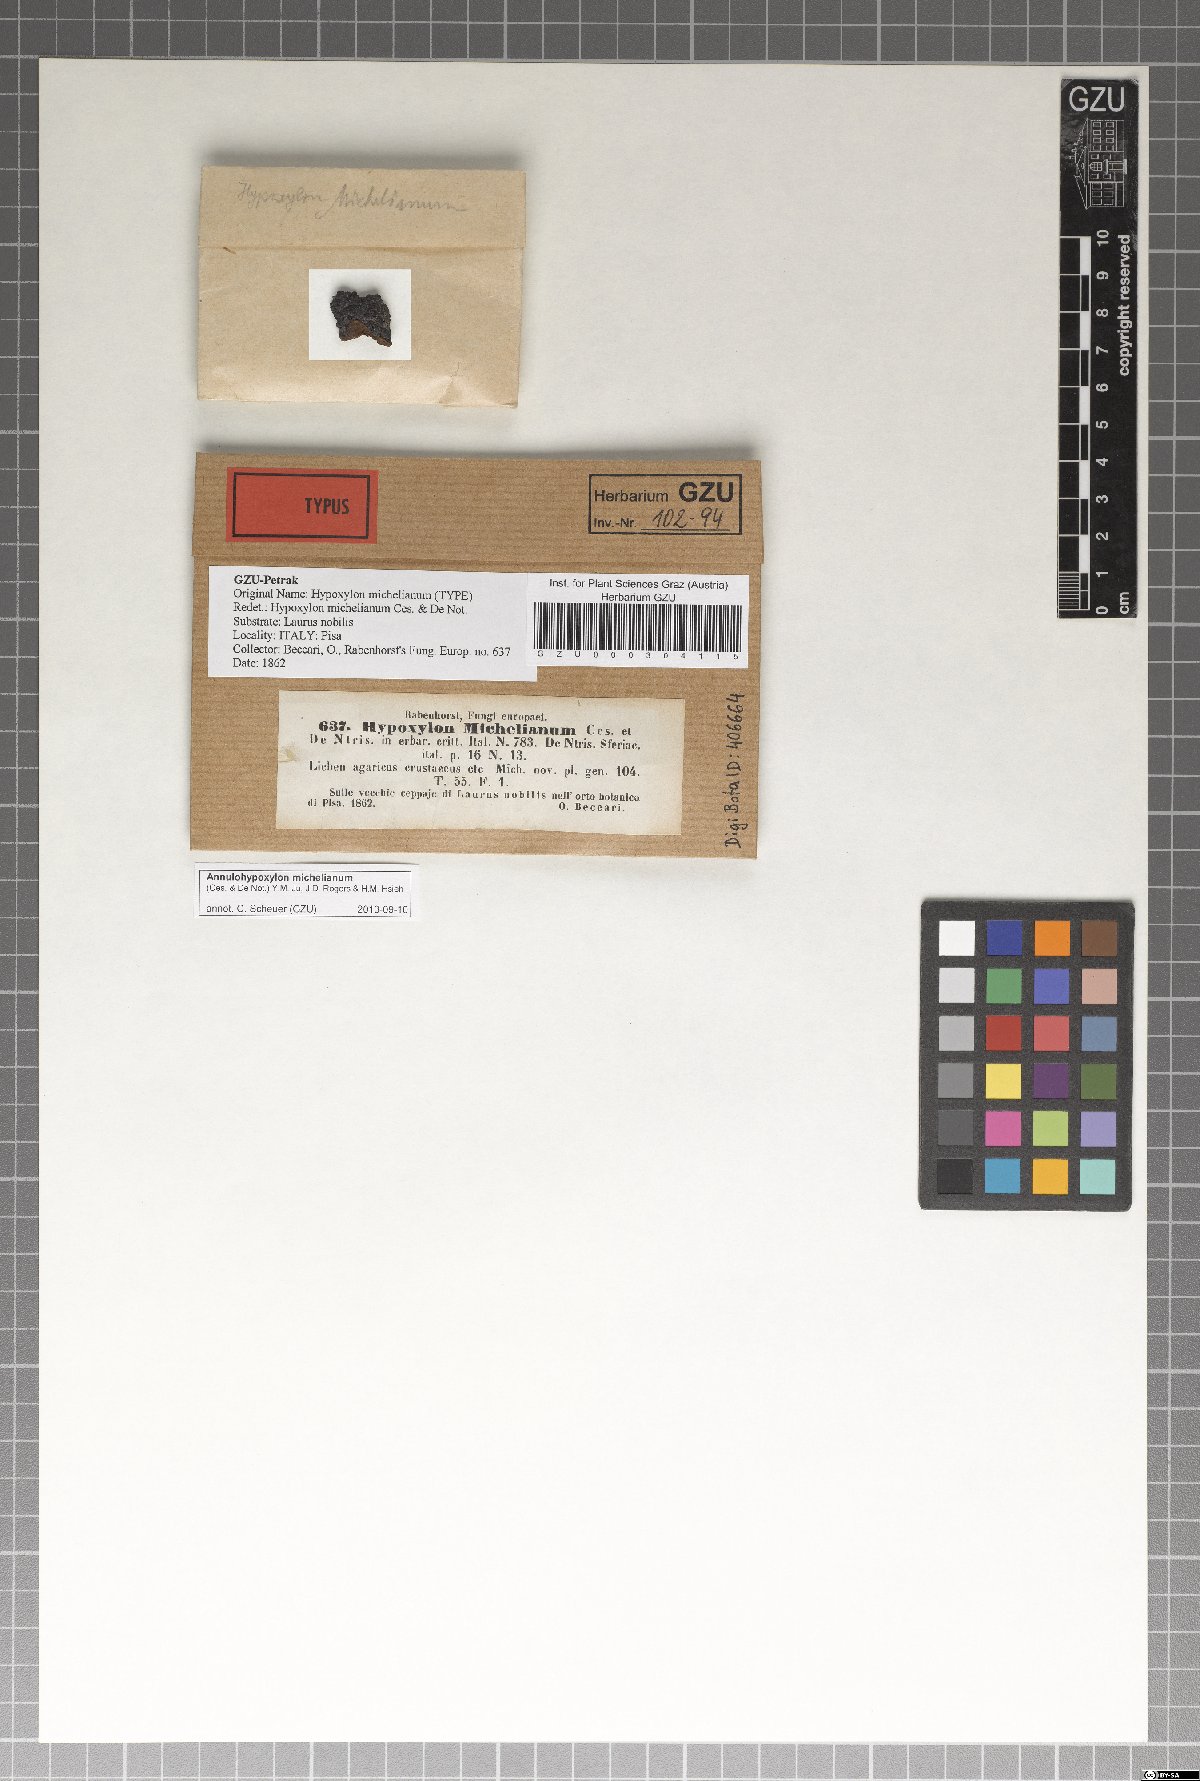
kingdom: Fungi
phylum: Ascomycota
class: Sordariomycetes
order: Xylariales
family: Hypoxylaceae
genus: Annulohypoxylon
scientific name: Annulohypoxylon michelianum
